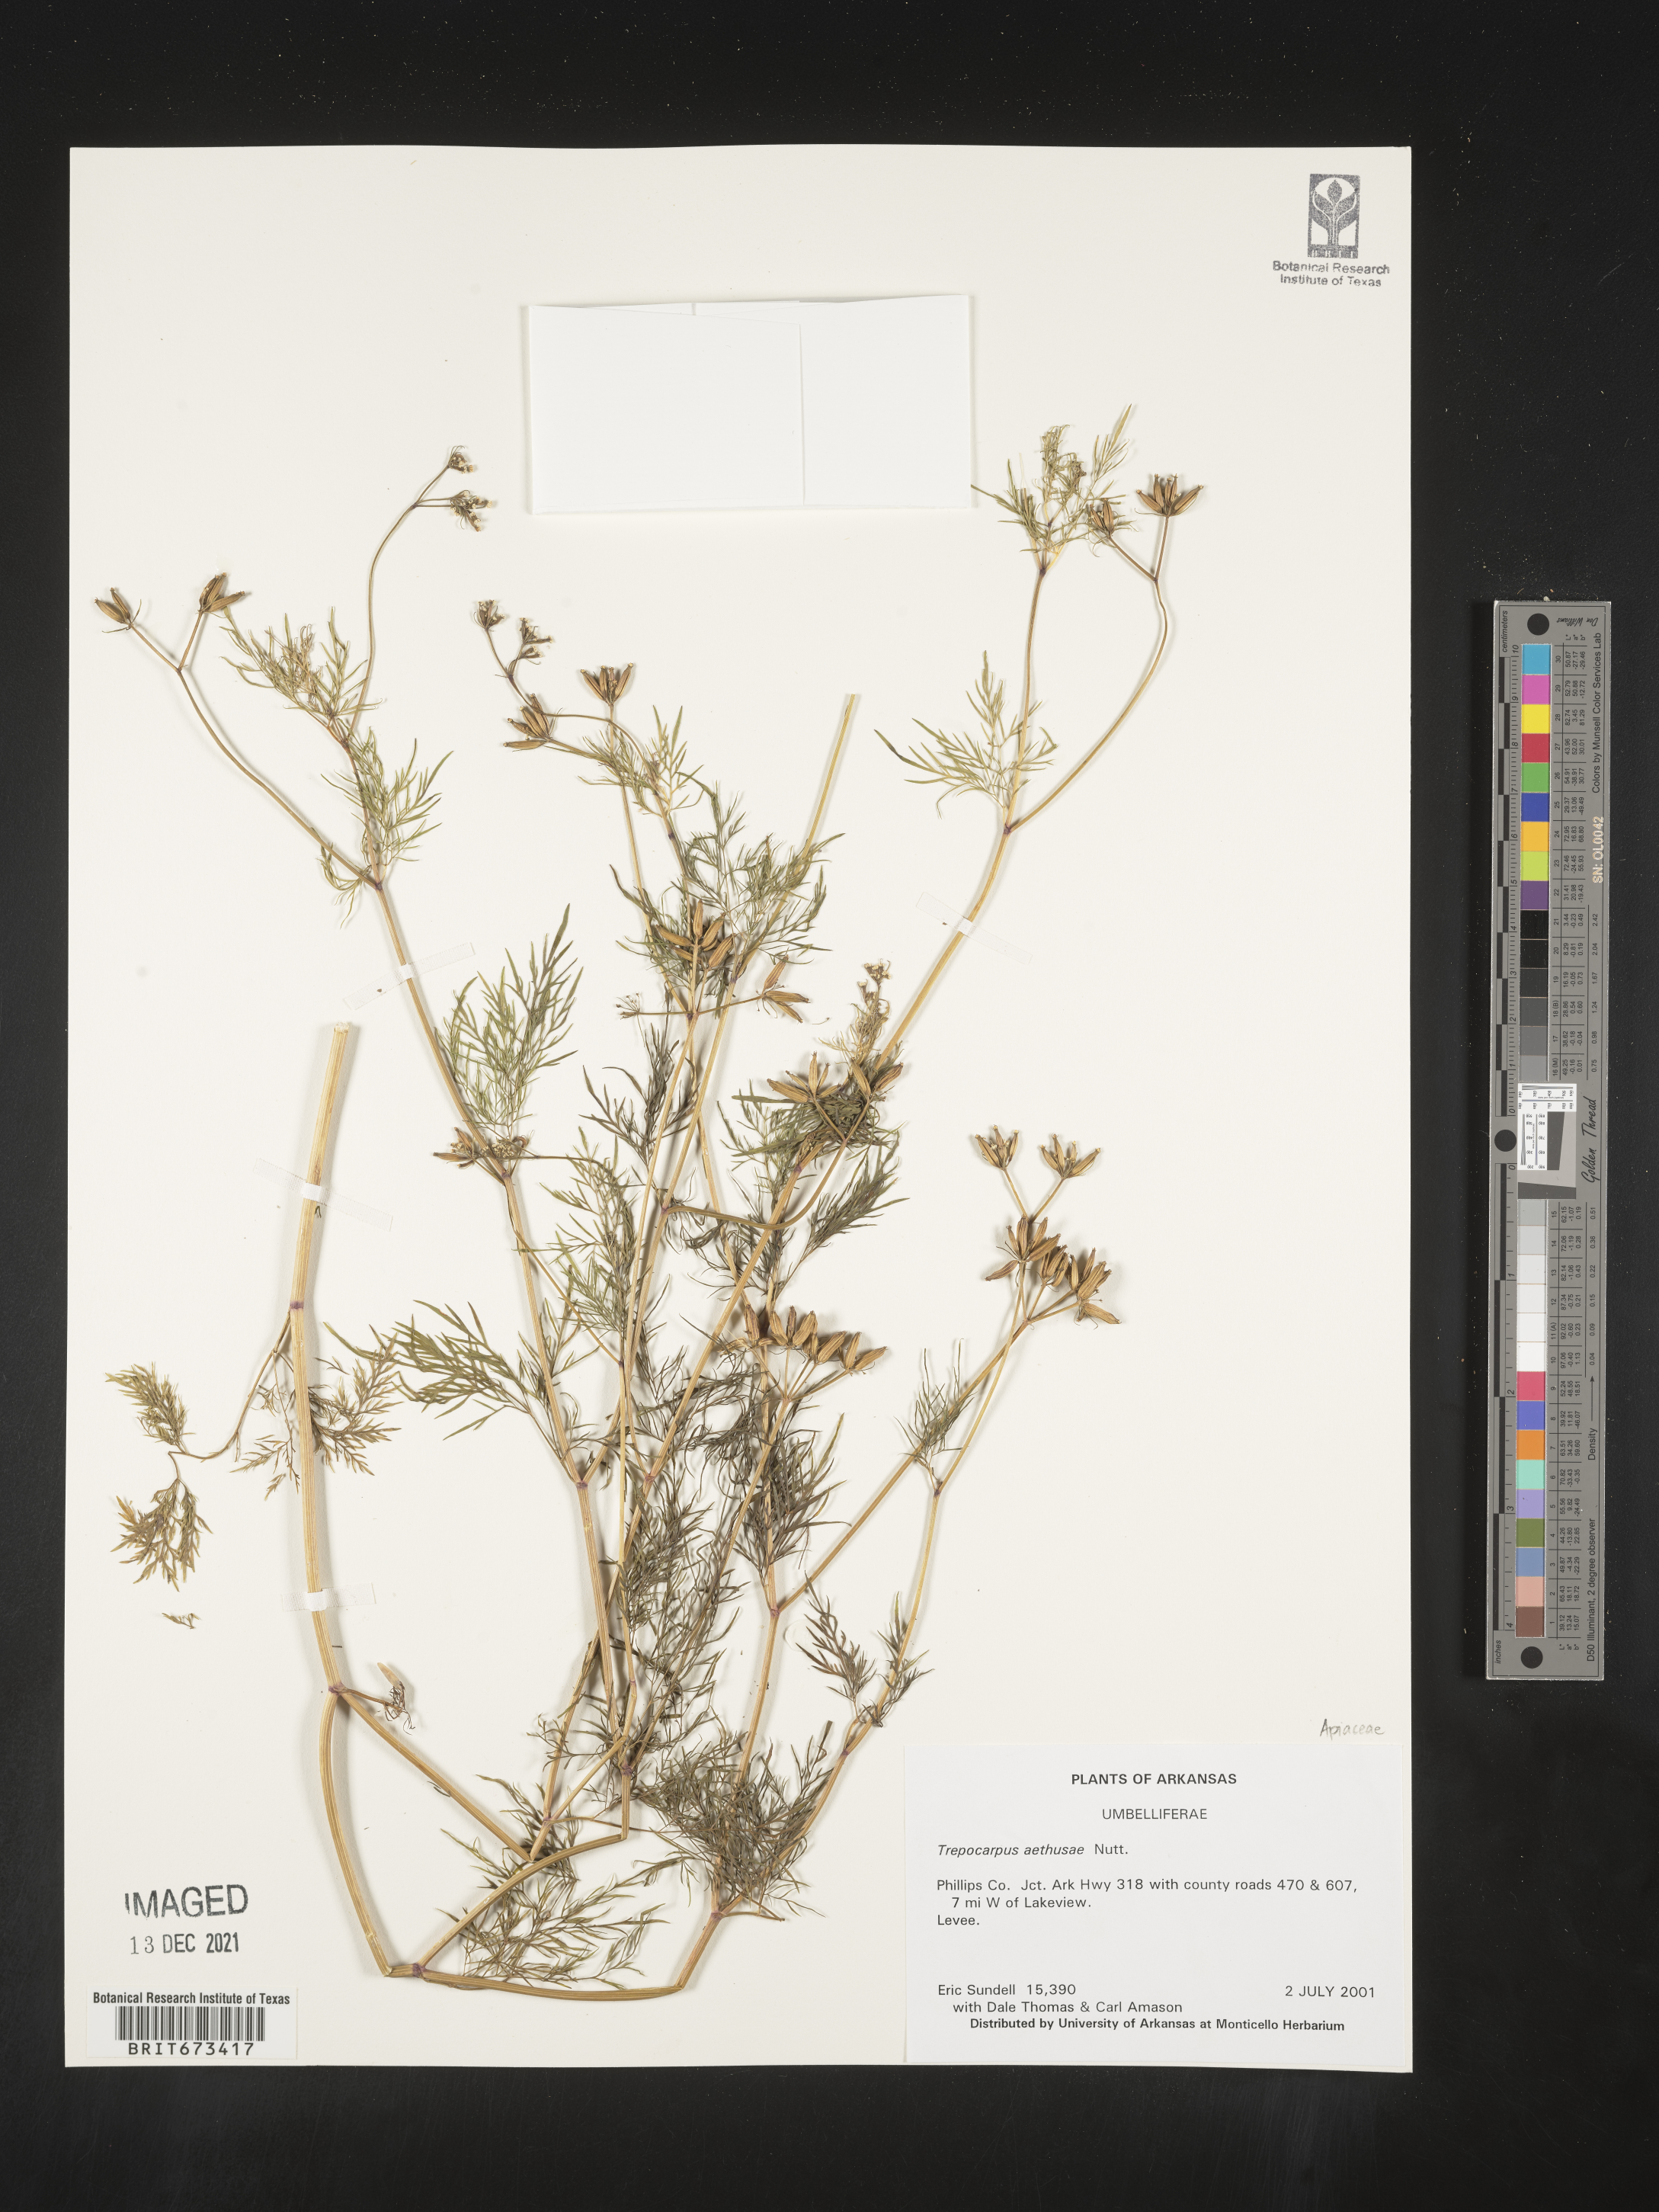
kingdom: Plantae
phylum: Tracheophyta
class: Magnoliopsida
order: Apiales
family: Apiaceae
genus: Trepocarpus
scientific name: Trepocarpus aethusae
